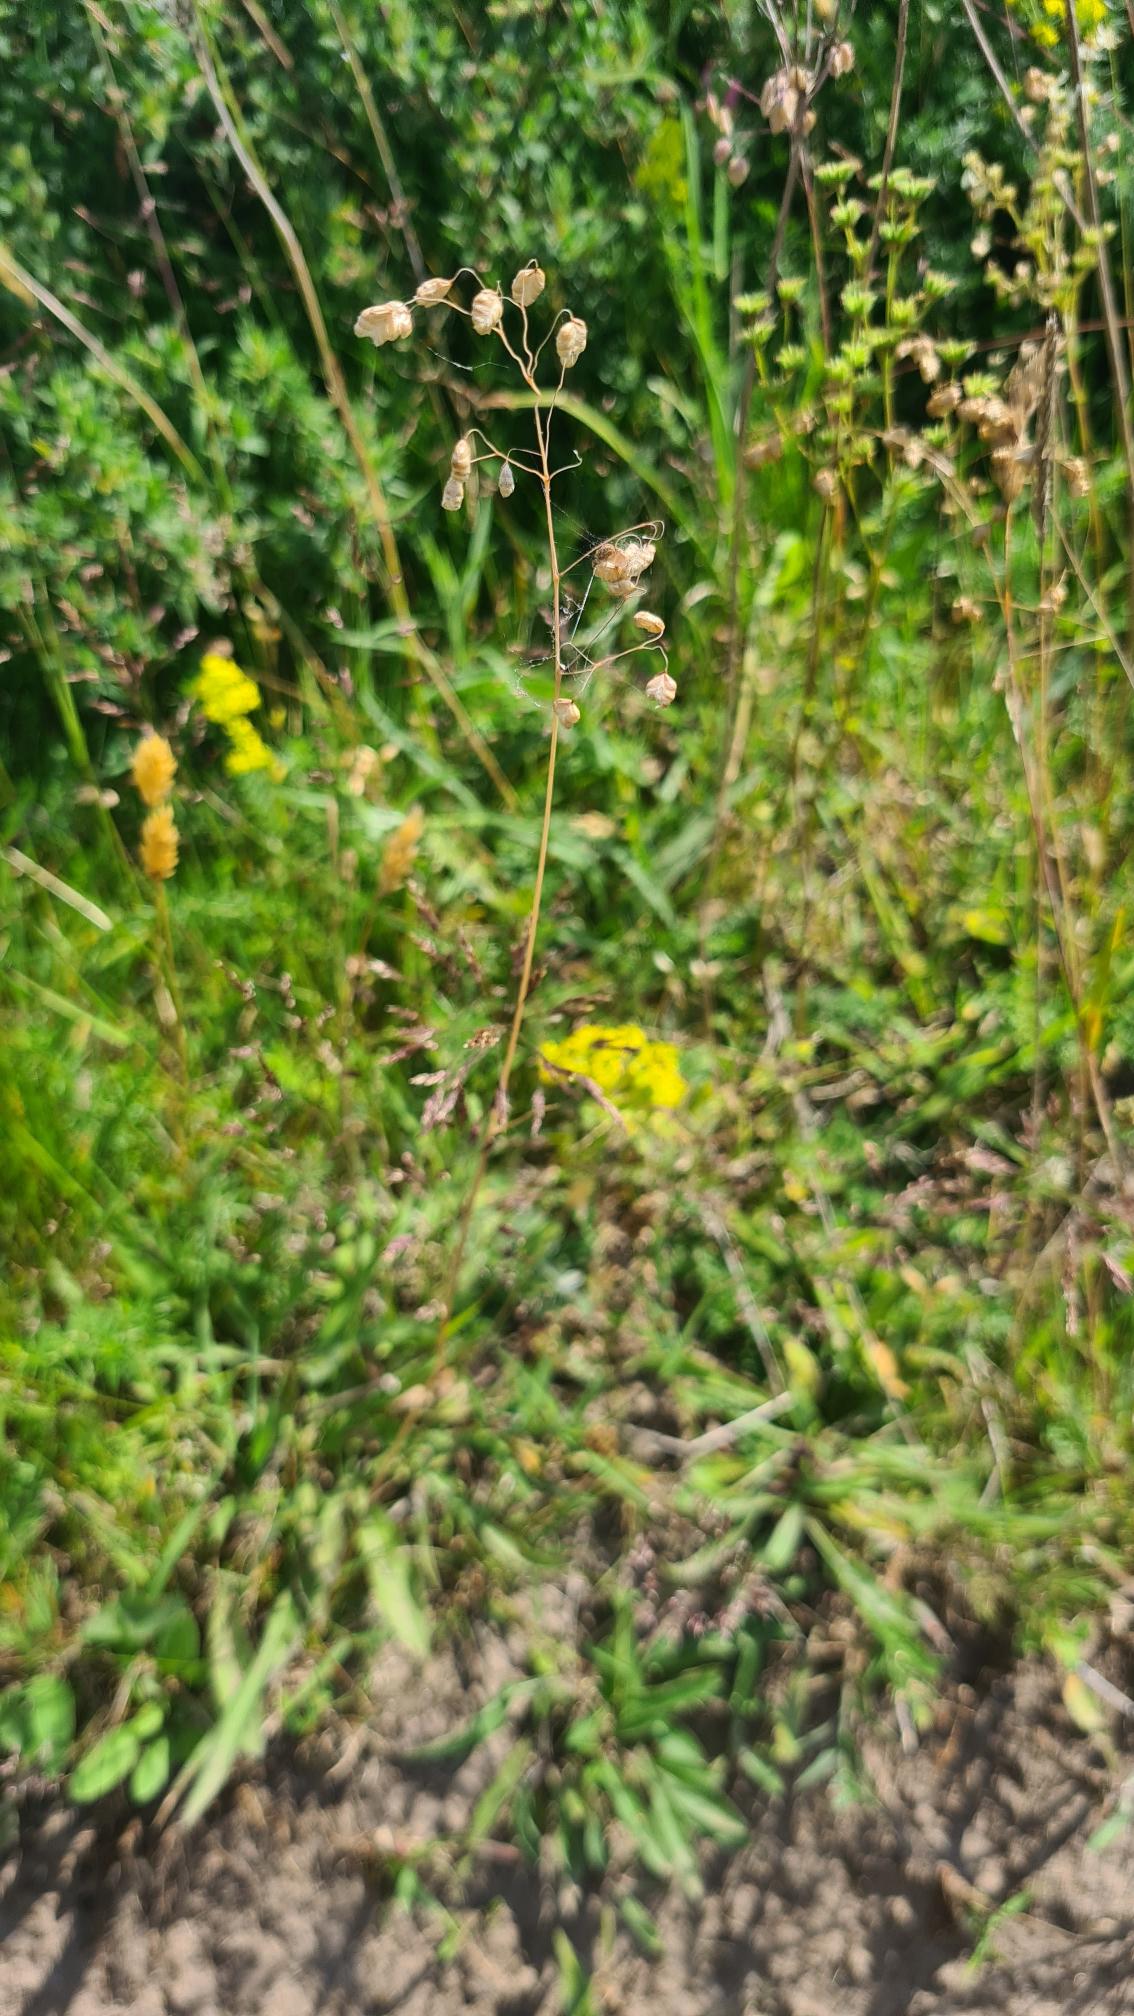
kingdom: Plantae
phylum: Tracheophyta
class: Liliopsida
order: Poales
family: Poaceae
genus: Briza
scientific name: Briza media
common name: Hjertegræs
